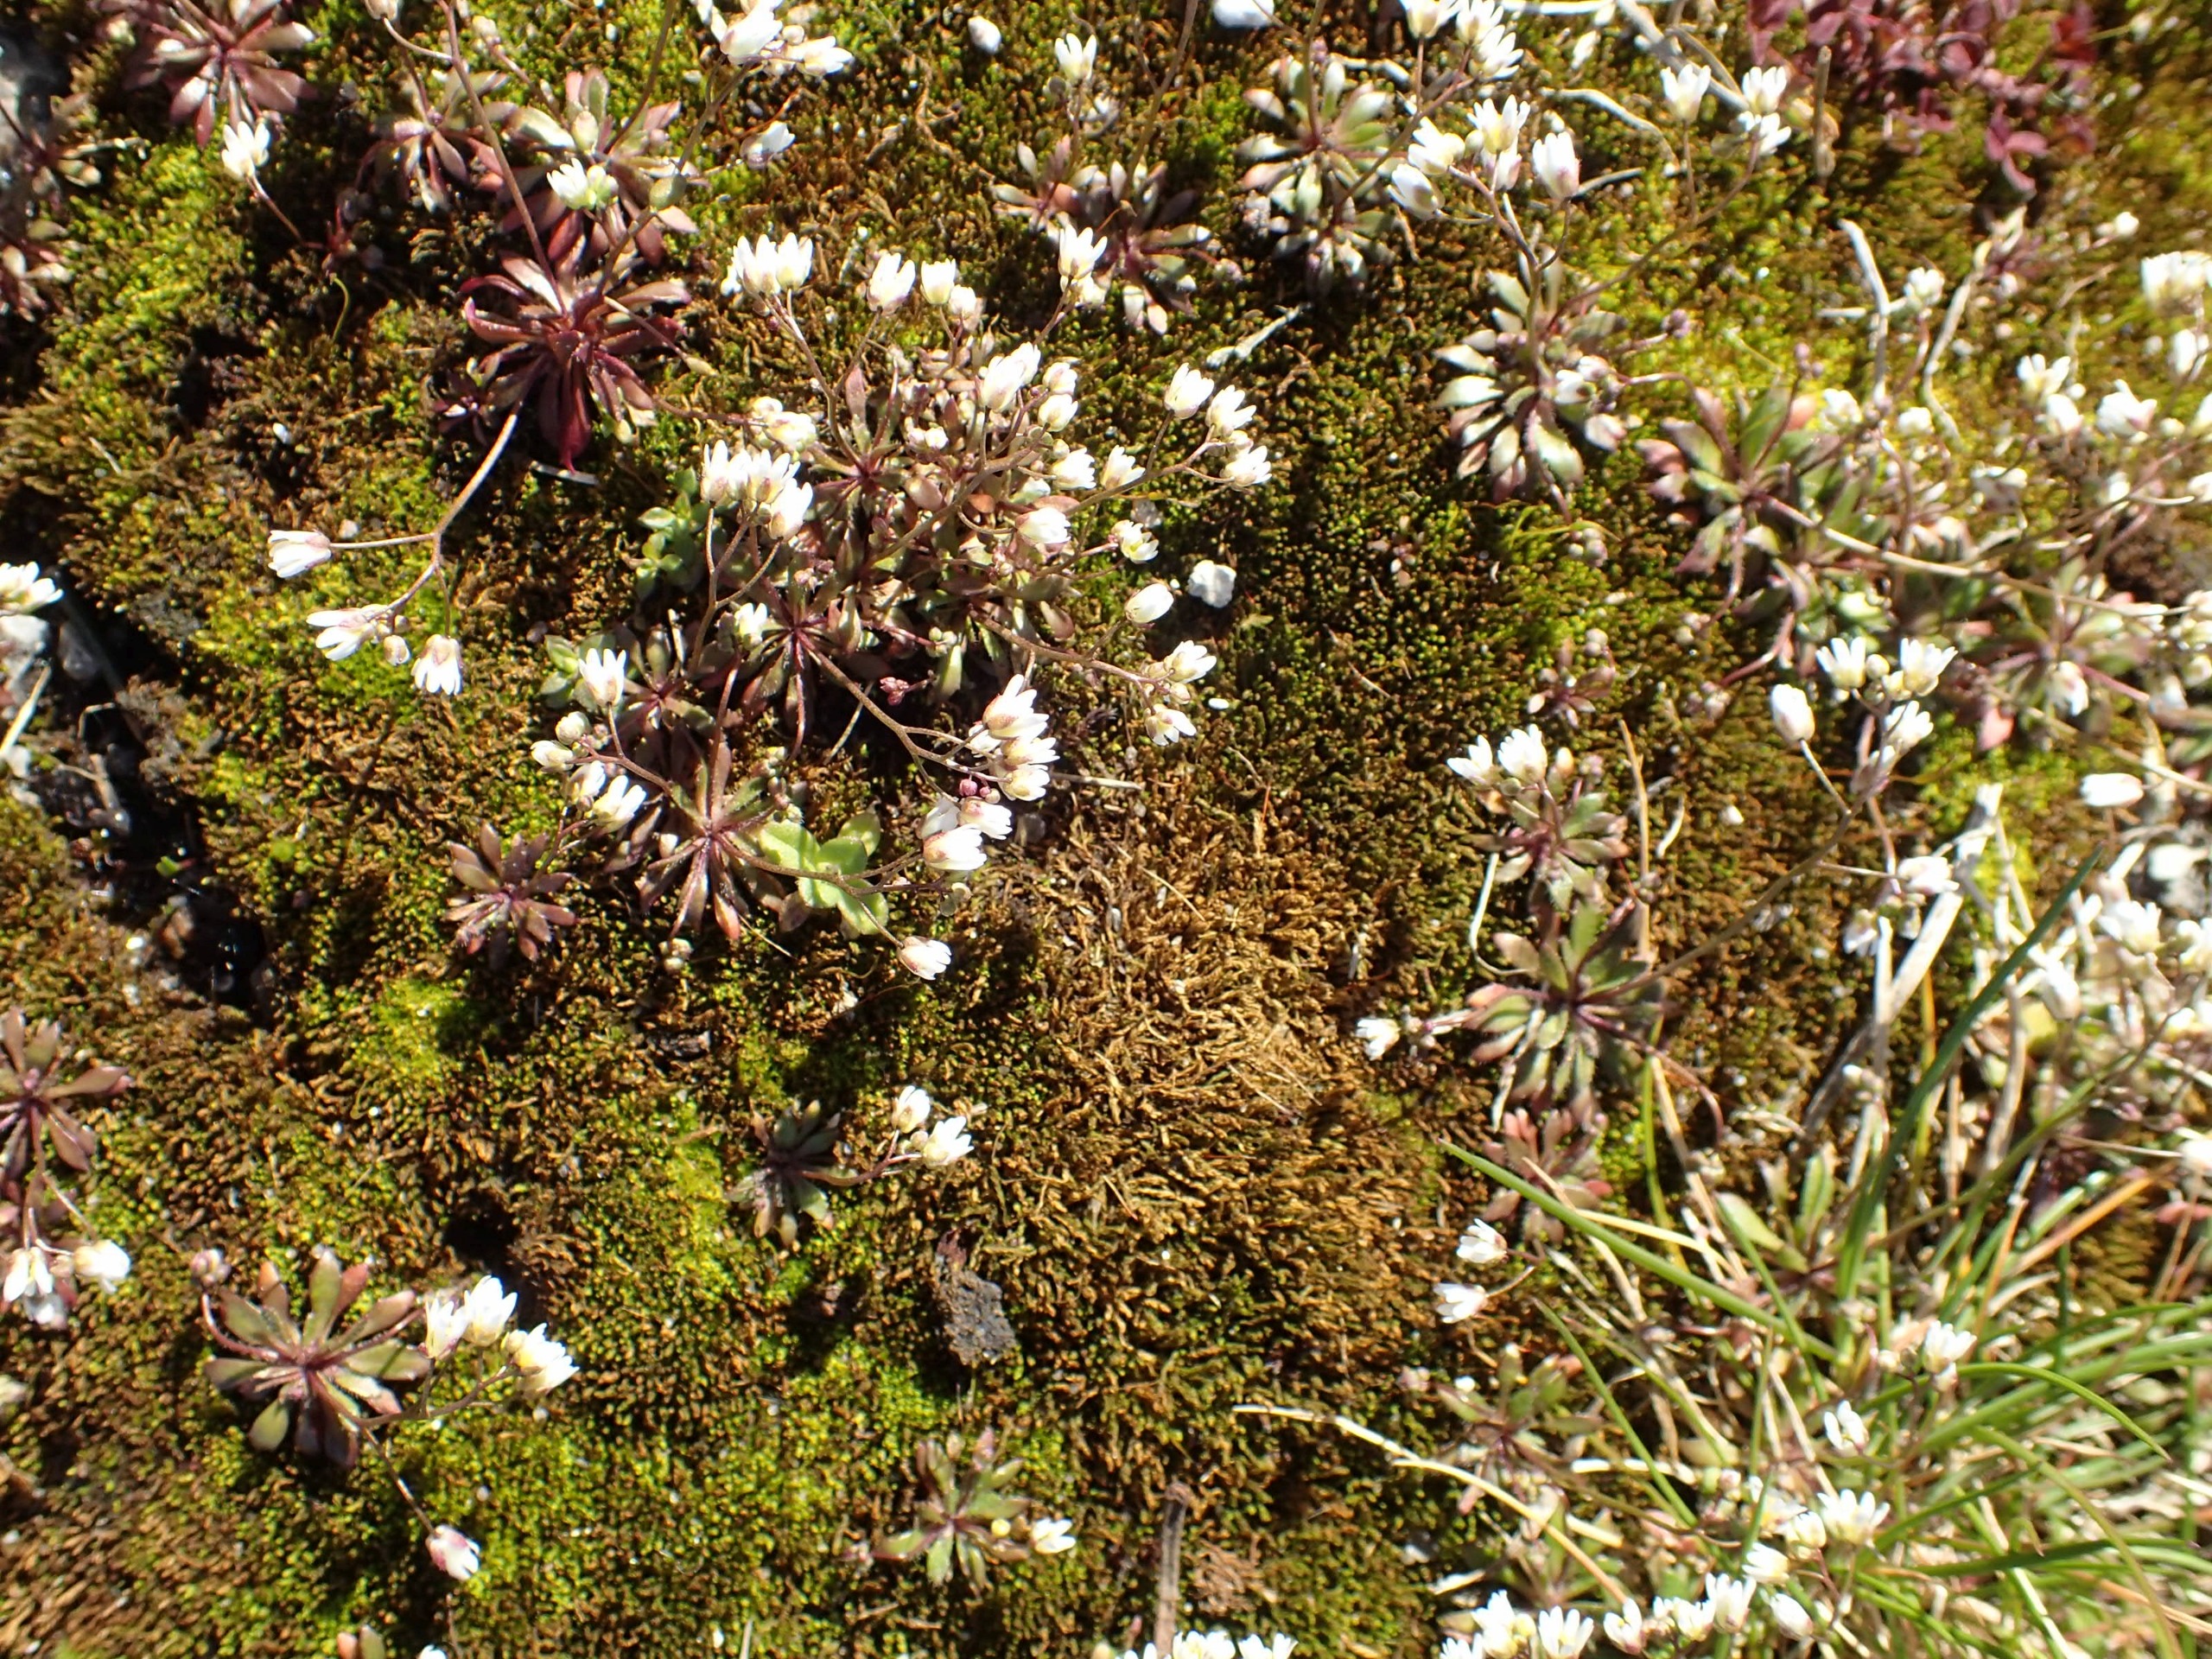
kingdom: Plantae
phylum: Tracheophyta
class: Magnoliopsida
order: Brassicales
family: Brassicaceae
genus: Draba
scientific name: Draba verna
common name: Vår-gæslingeblomst
